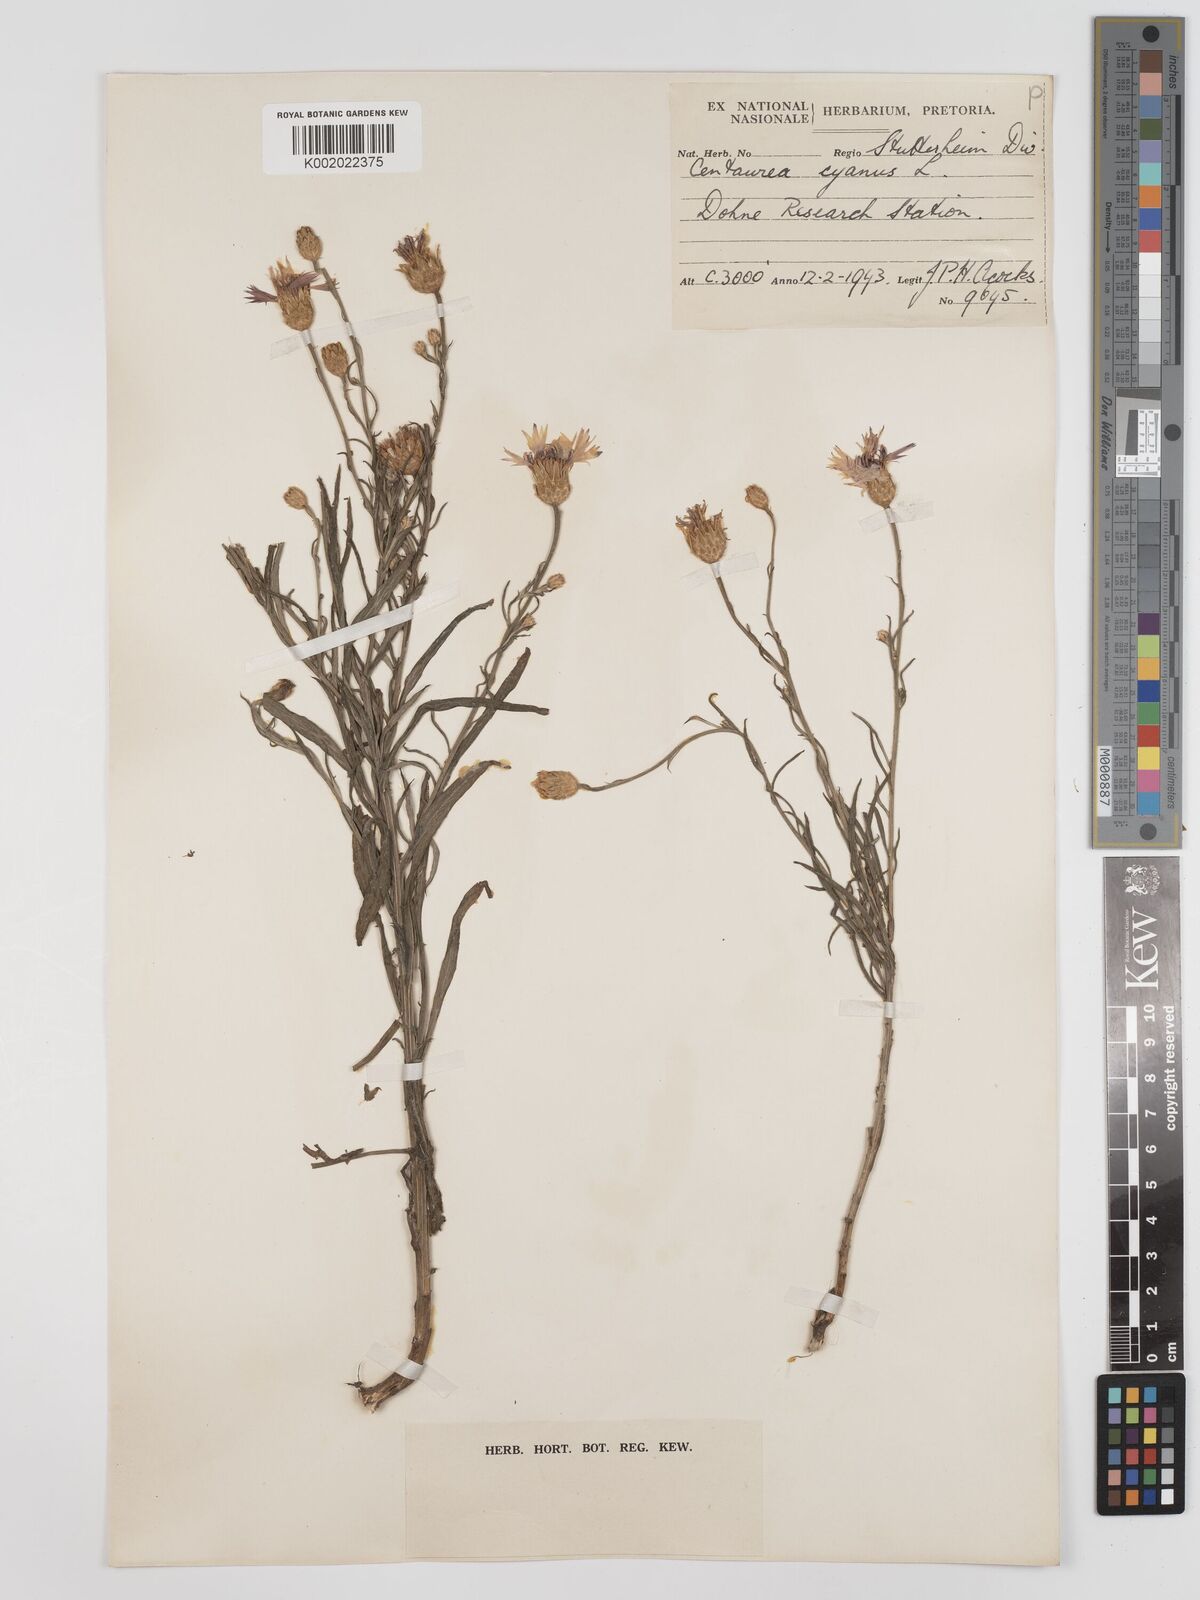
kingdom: Plantae
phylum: Tracheophyta
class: Magnoliopsida
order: Asterales
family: Asteraceae
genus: Centaurea
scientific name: Centaurea cyanus
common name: Cornflower
